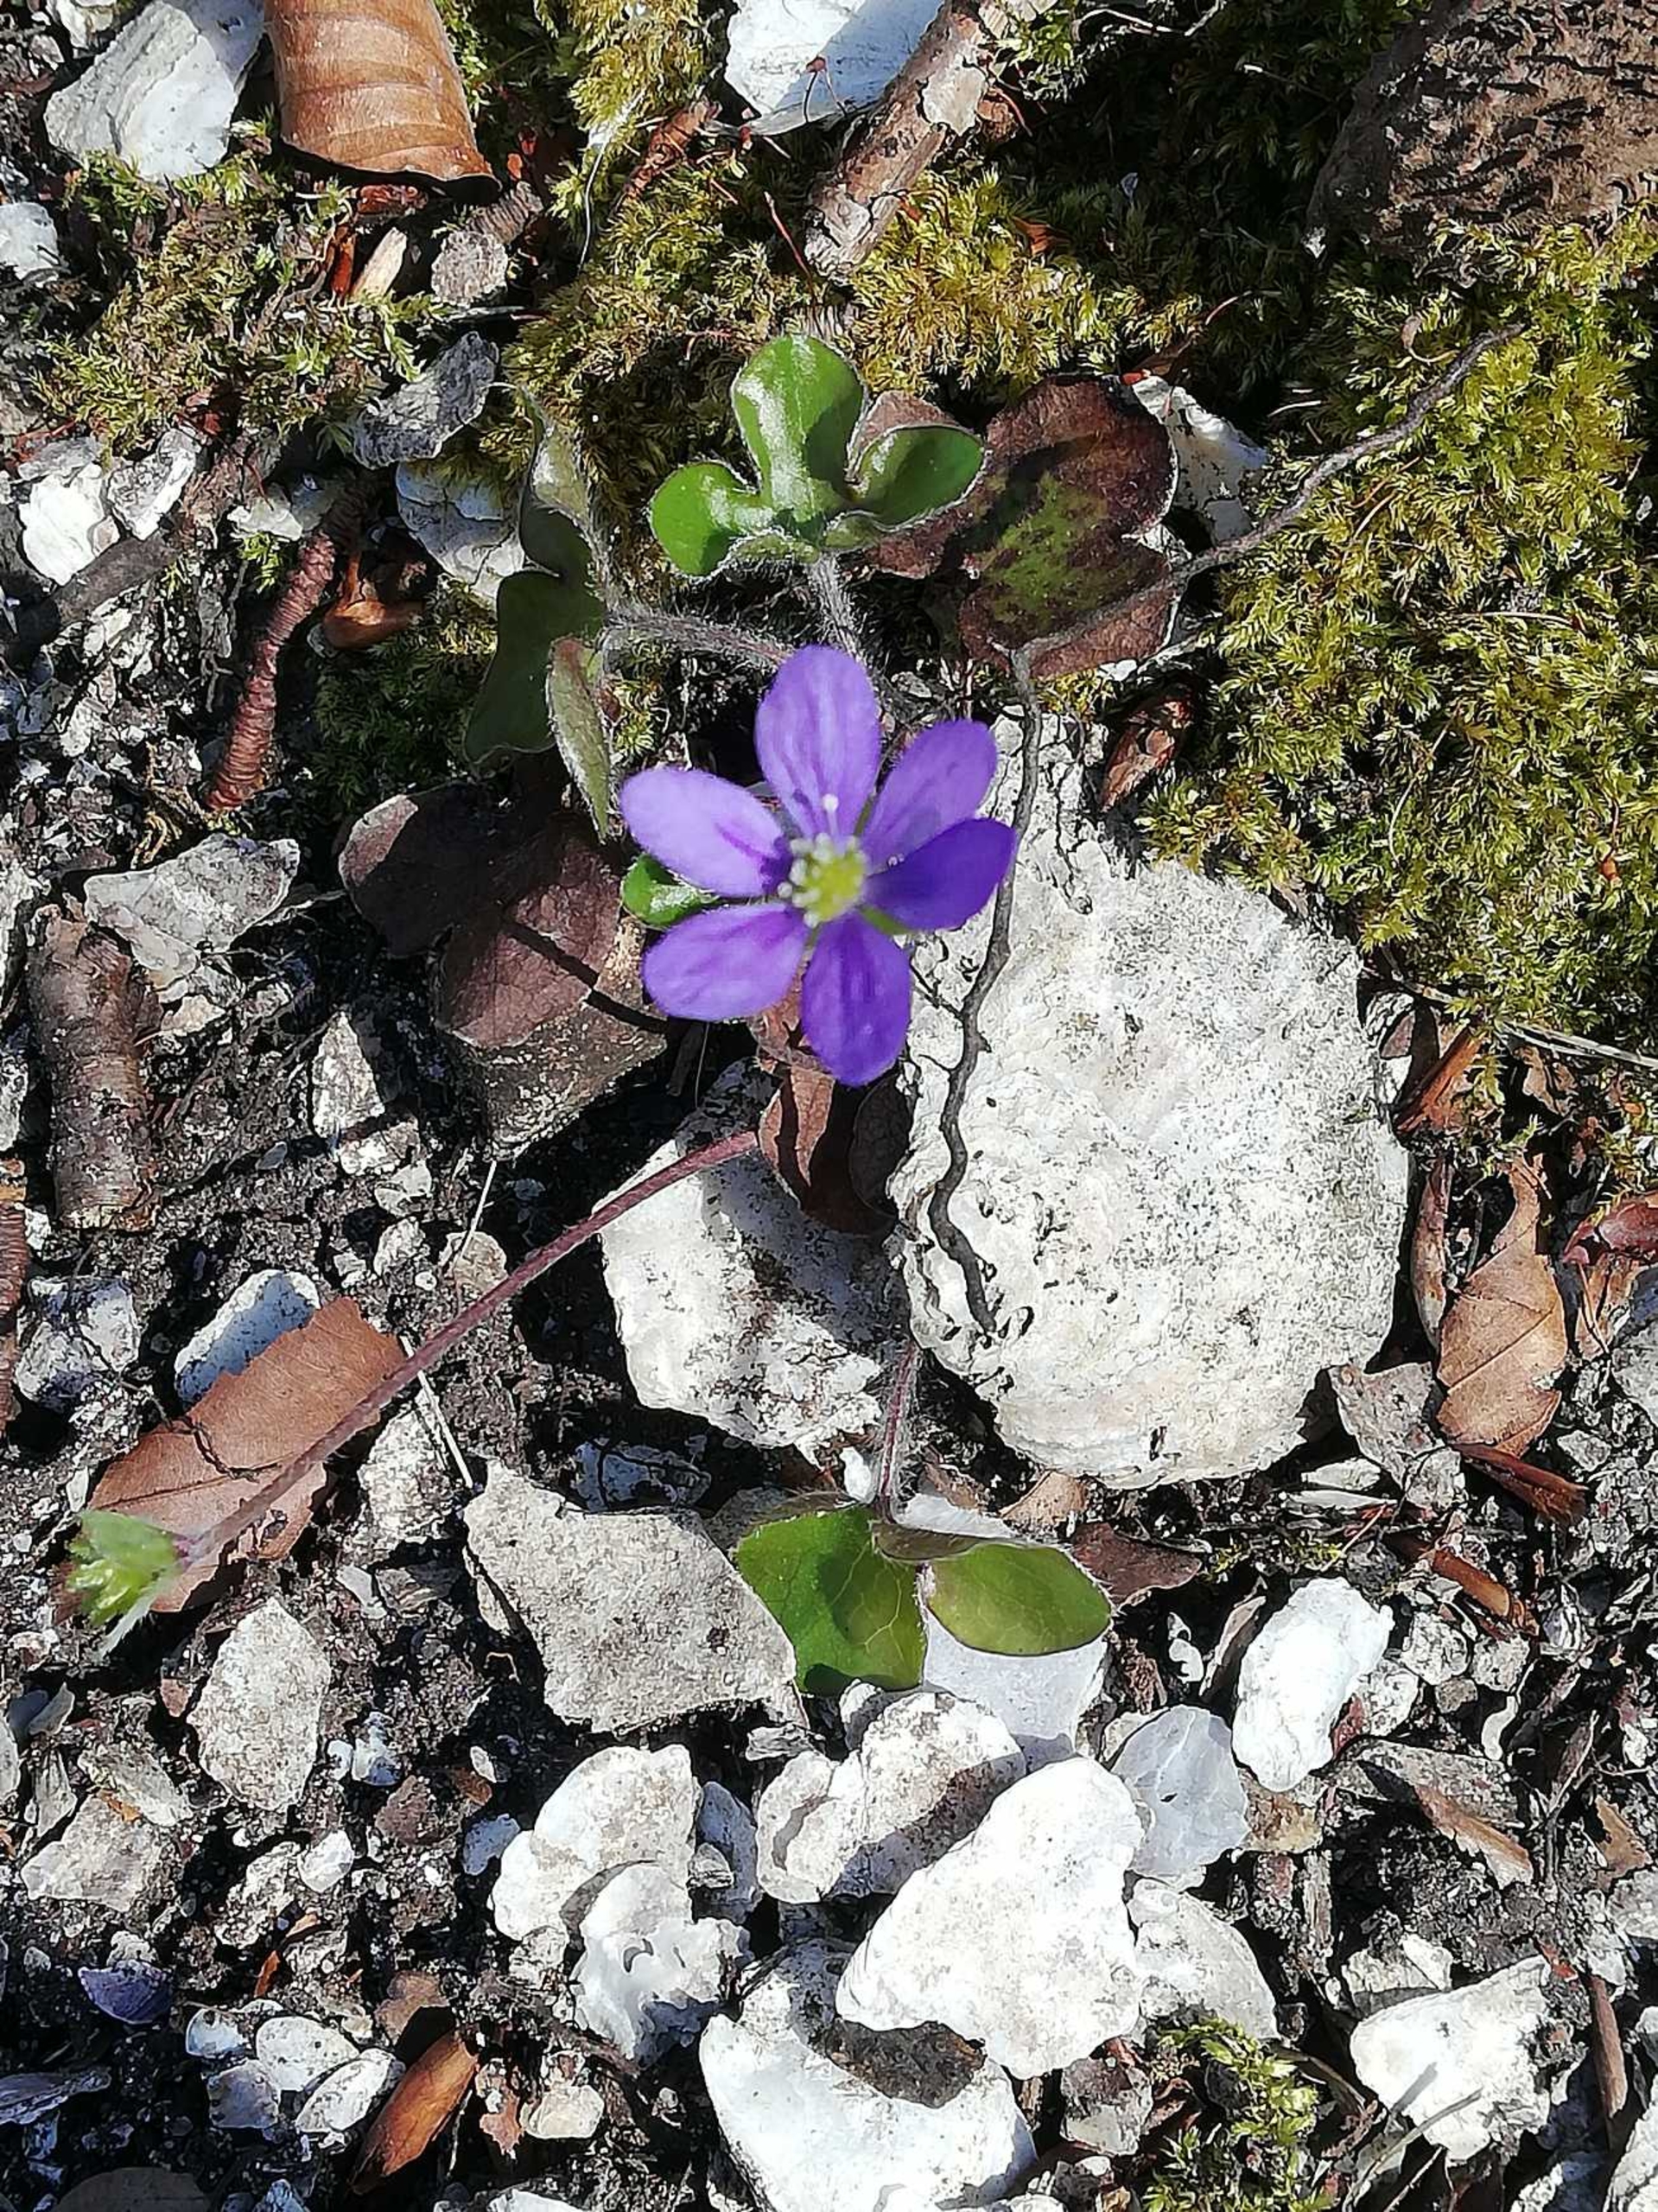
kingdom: Plantae
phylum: Tracheophyta
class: Magnoliopsida
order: Ranunculales
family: Ranunculaceae
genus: Hepatica
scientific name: Hepatica nobilis
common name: Blå anemone
